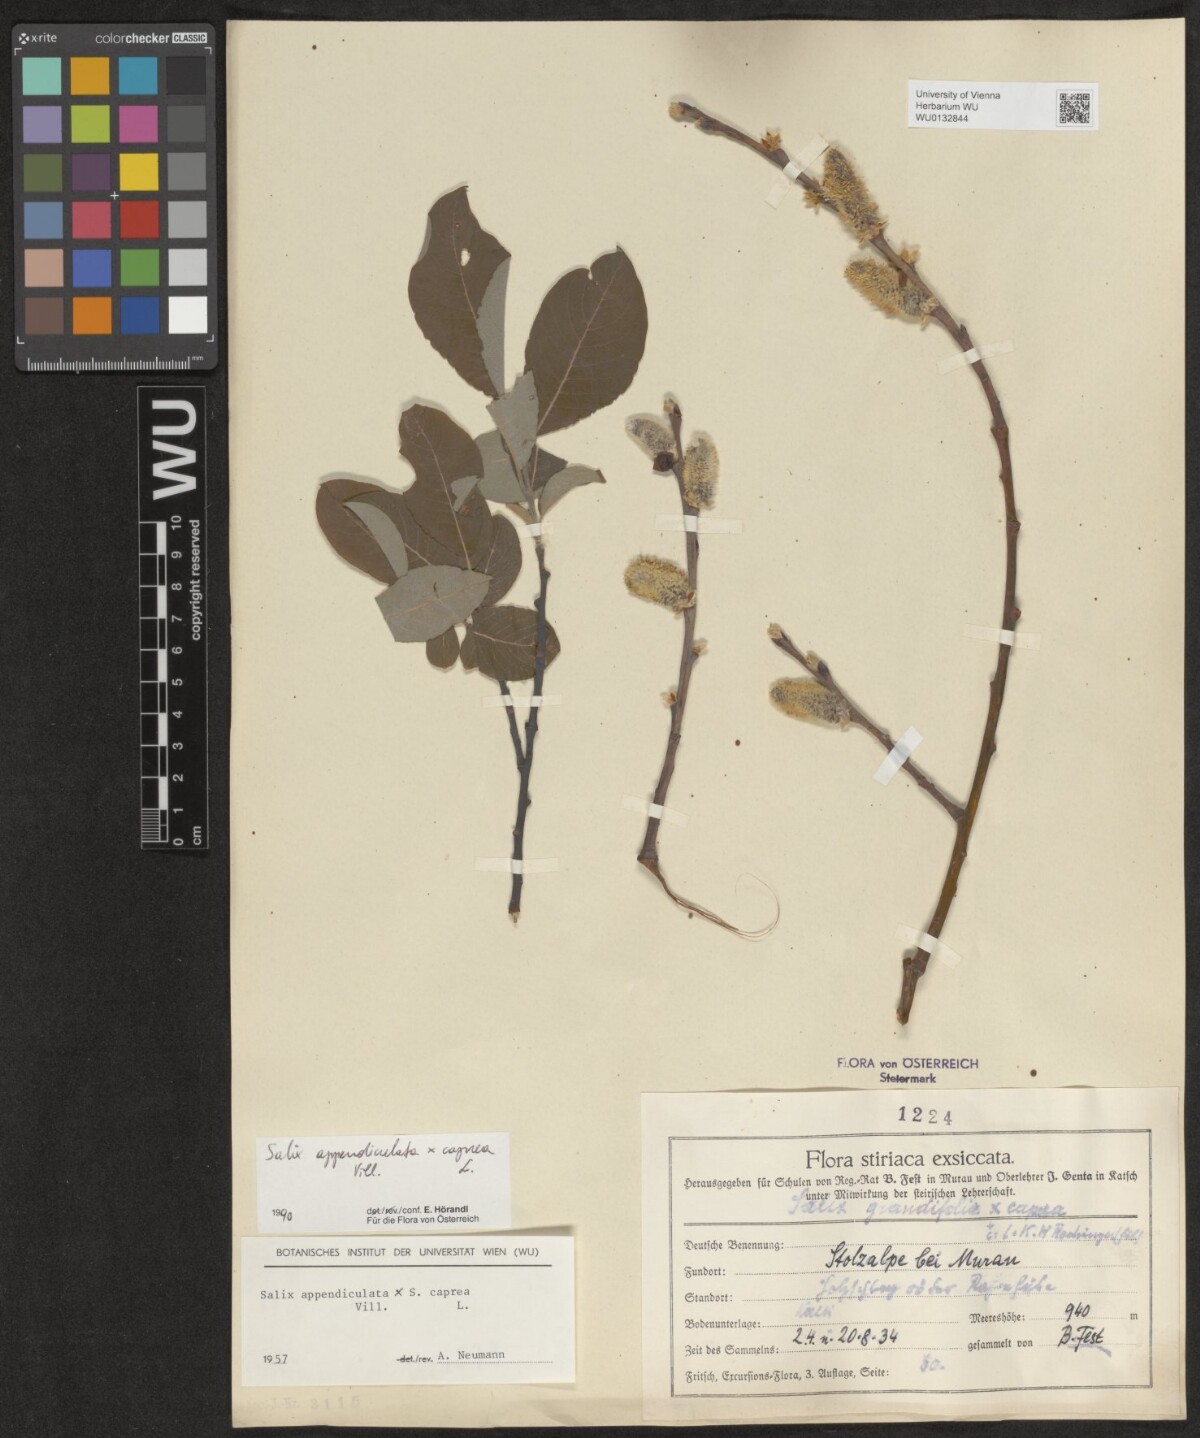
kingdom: Plantae
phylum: Tracheophyta
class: Magnoliopsida
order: Malpighiales
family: Salicaceae
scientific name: Salicaceae
